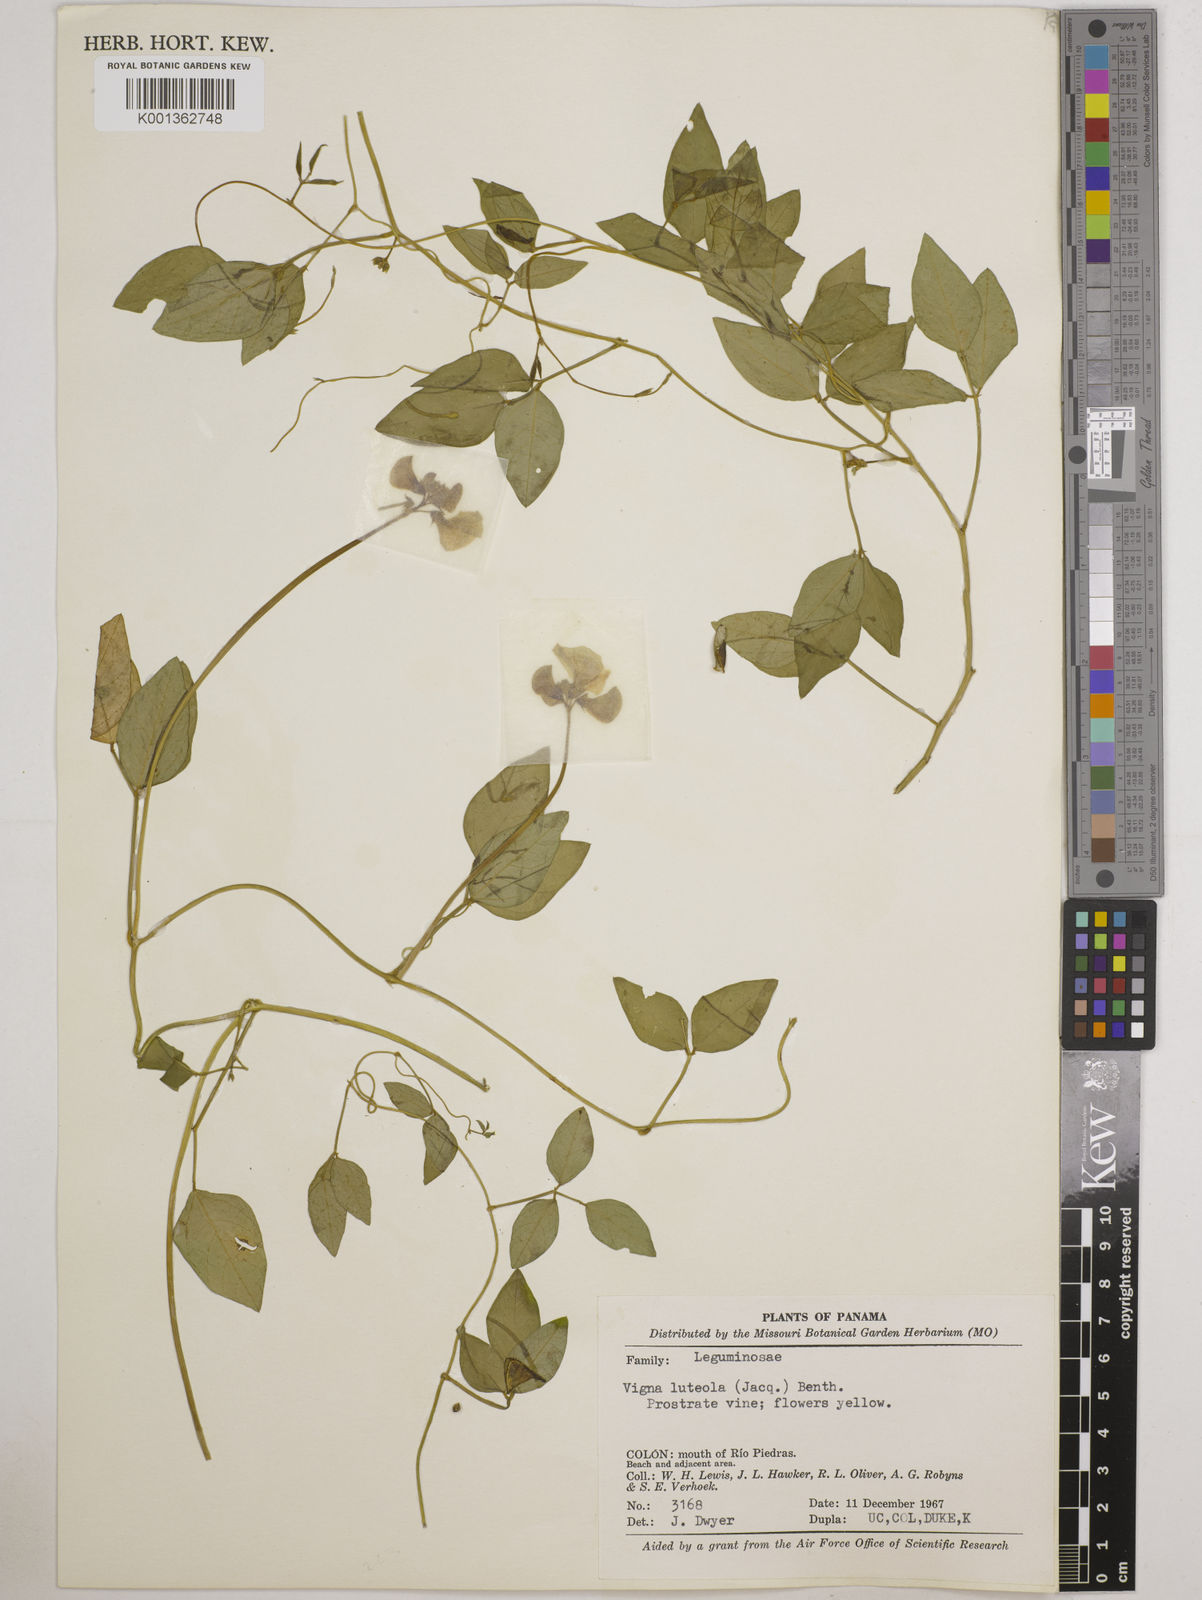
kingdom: Plantae
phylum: Tracheophyta
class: Magnoliopsida
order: Fabales
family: Fabaceae
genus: Vigna
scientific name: Vigna luteola
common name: Hairypod cowpea
